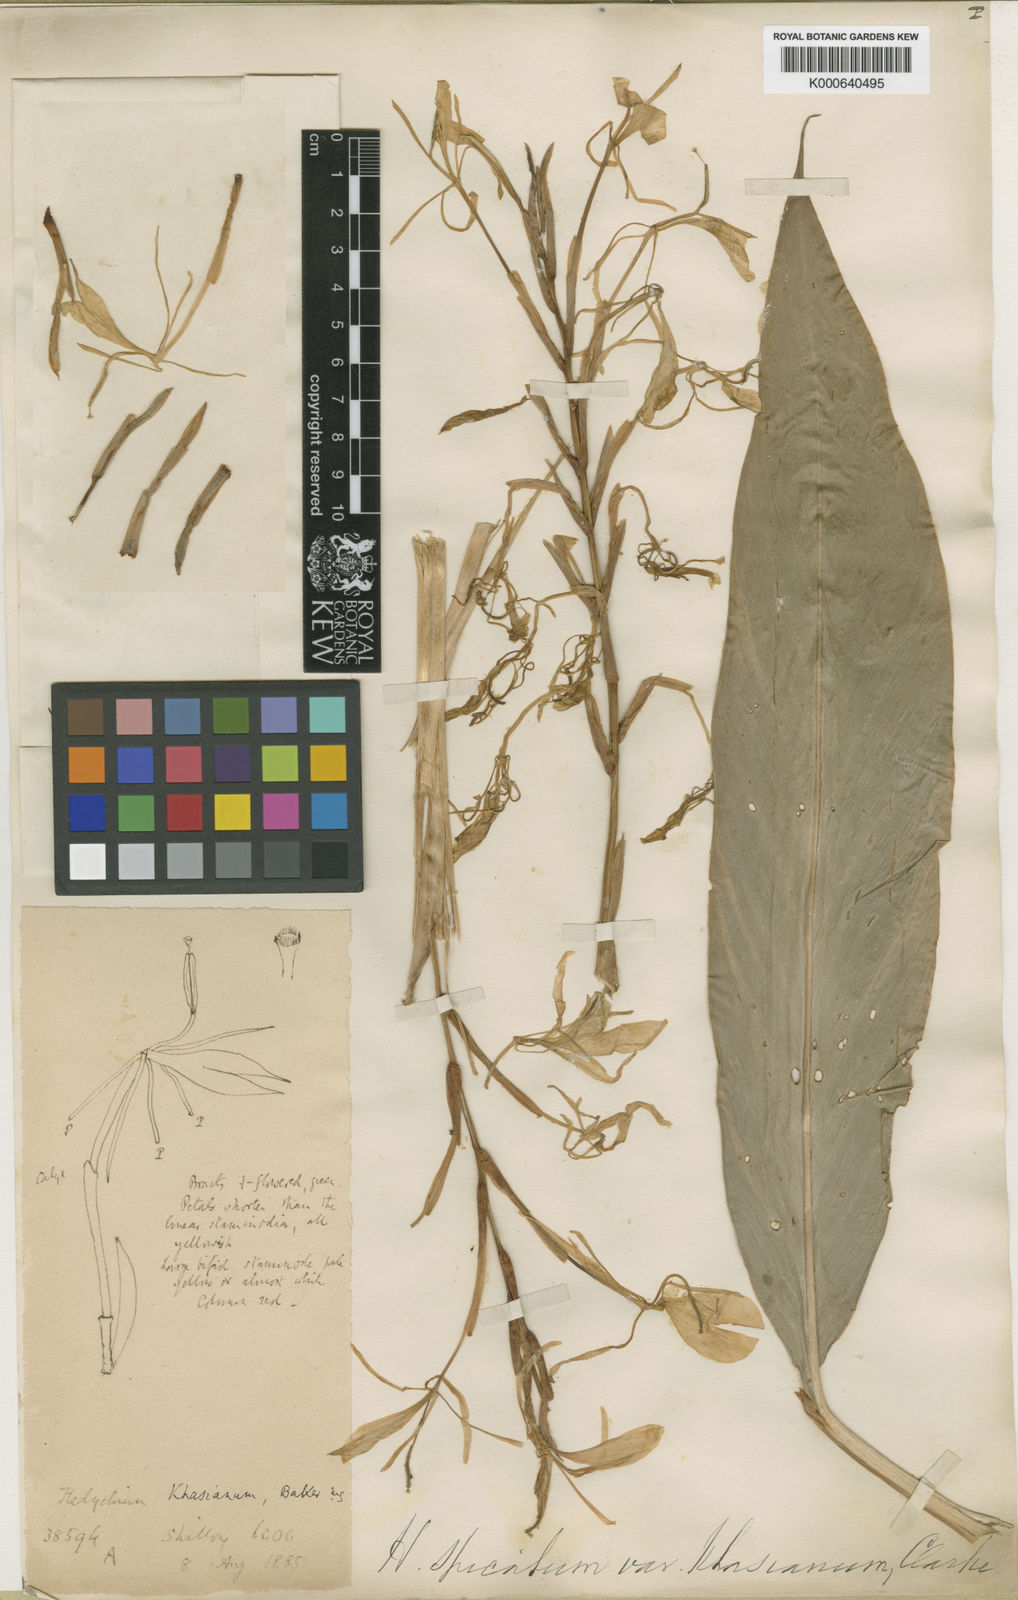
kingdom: Plantae
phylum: Tracheophyta
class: Liliopsida
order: Zingiberales
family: Zingiberaceae
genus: Hedychium
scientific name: Hedychium spicatum
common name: Spiked ginger-lily
